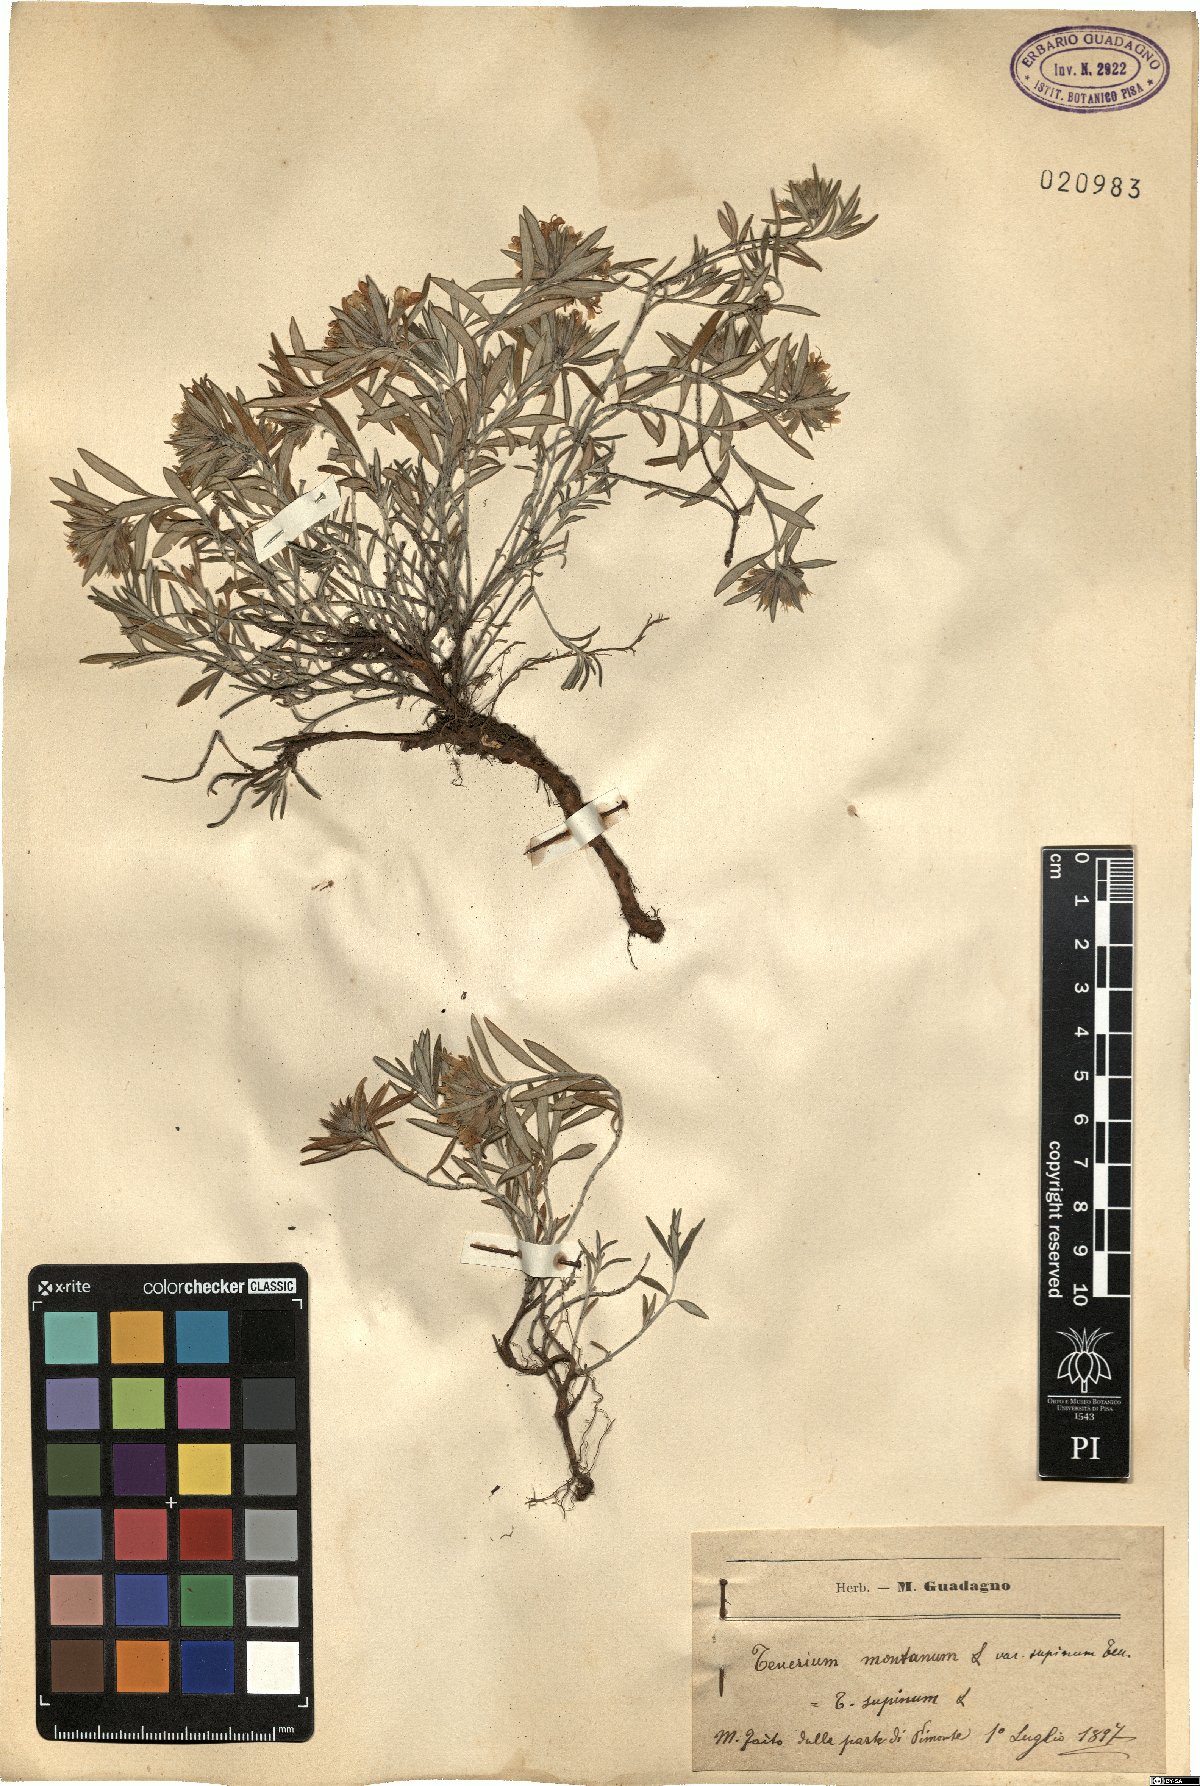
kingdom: Plantae
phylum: Tracheophyta
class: Magnoliopsida
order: Lamiales
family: Lamiaceae
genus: Teucrium
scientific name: Teucrium montanum
